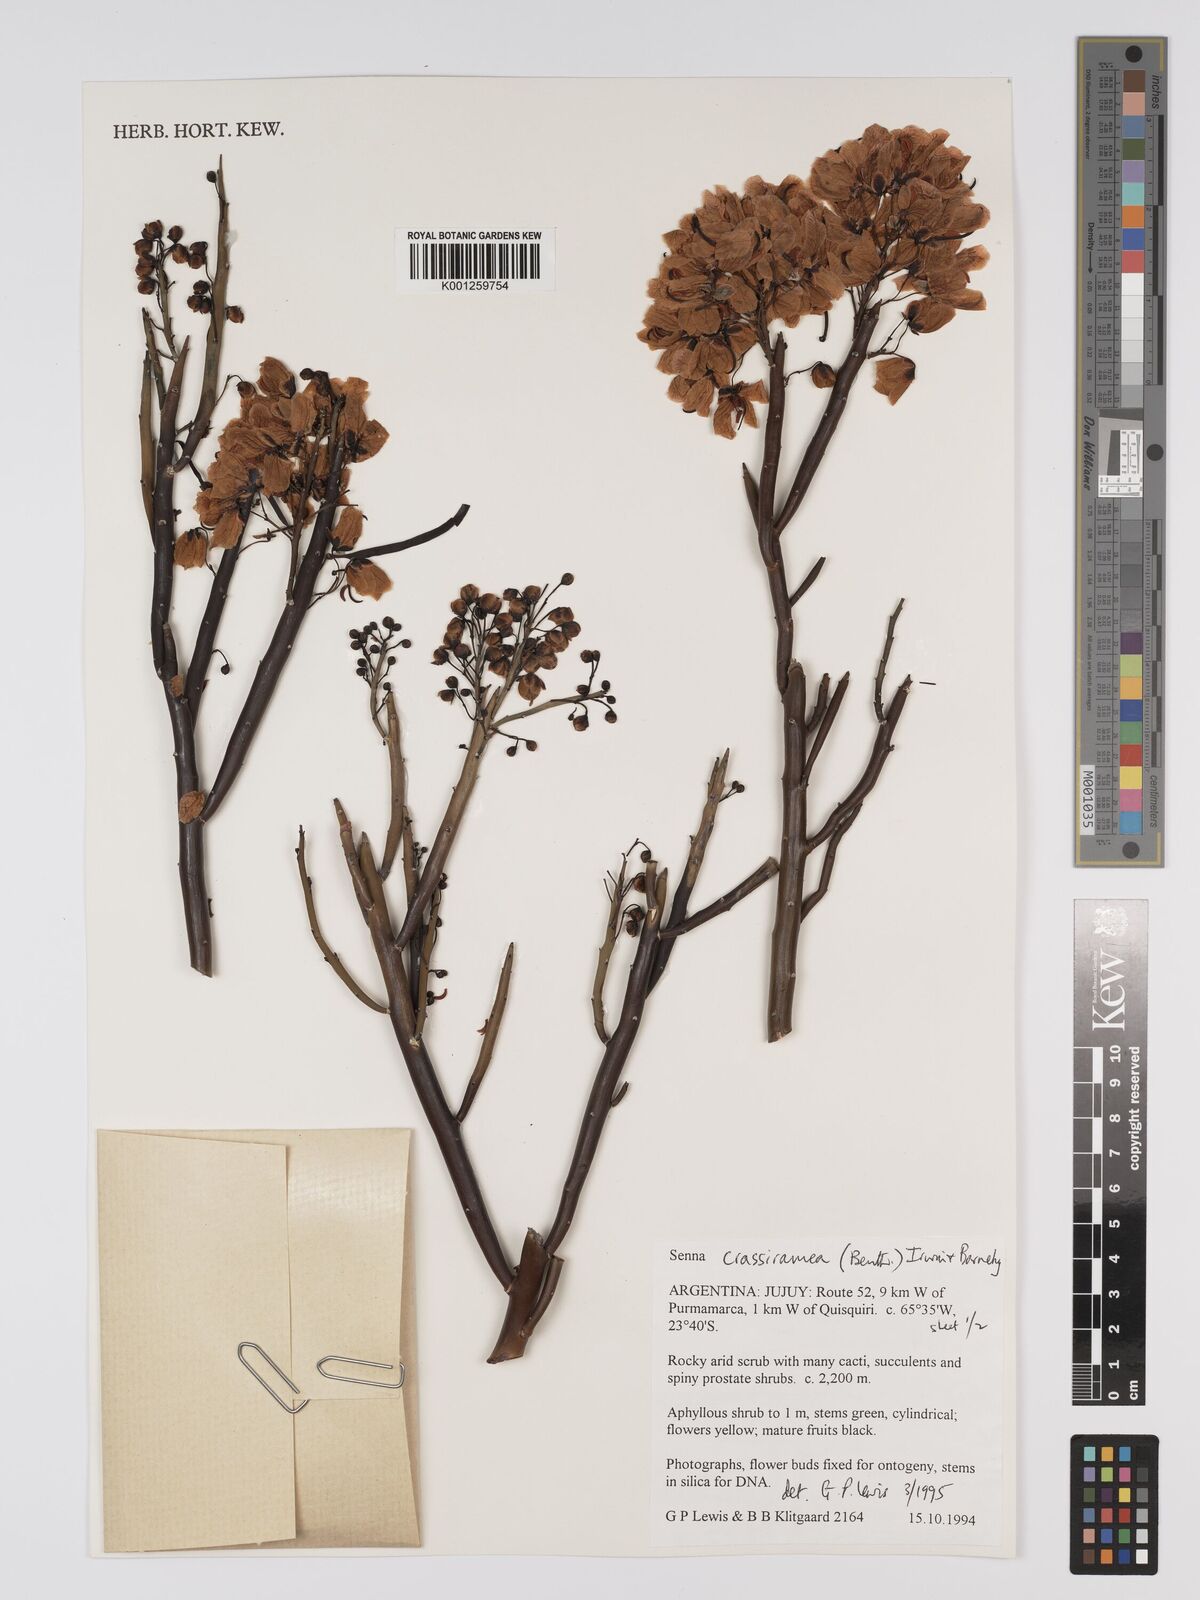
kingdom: Plantae
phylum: Tracheophyta
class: Magnoliopsida
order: Fabales
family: Fabaceae
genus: Senna
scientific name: Senna crassiramea
